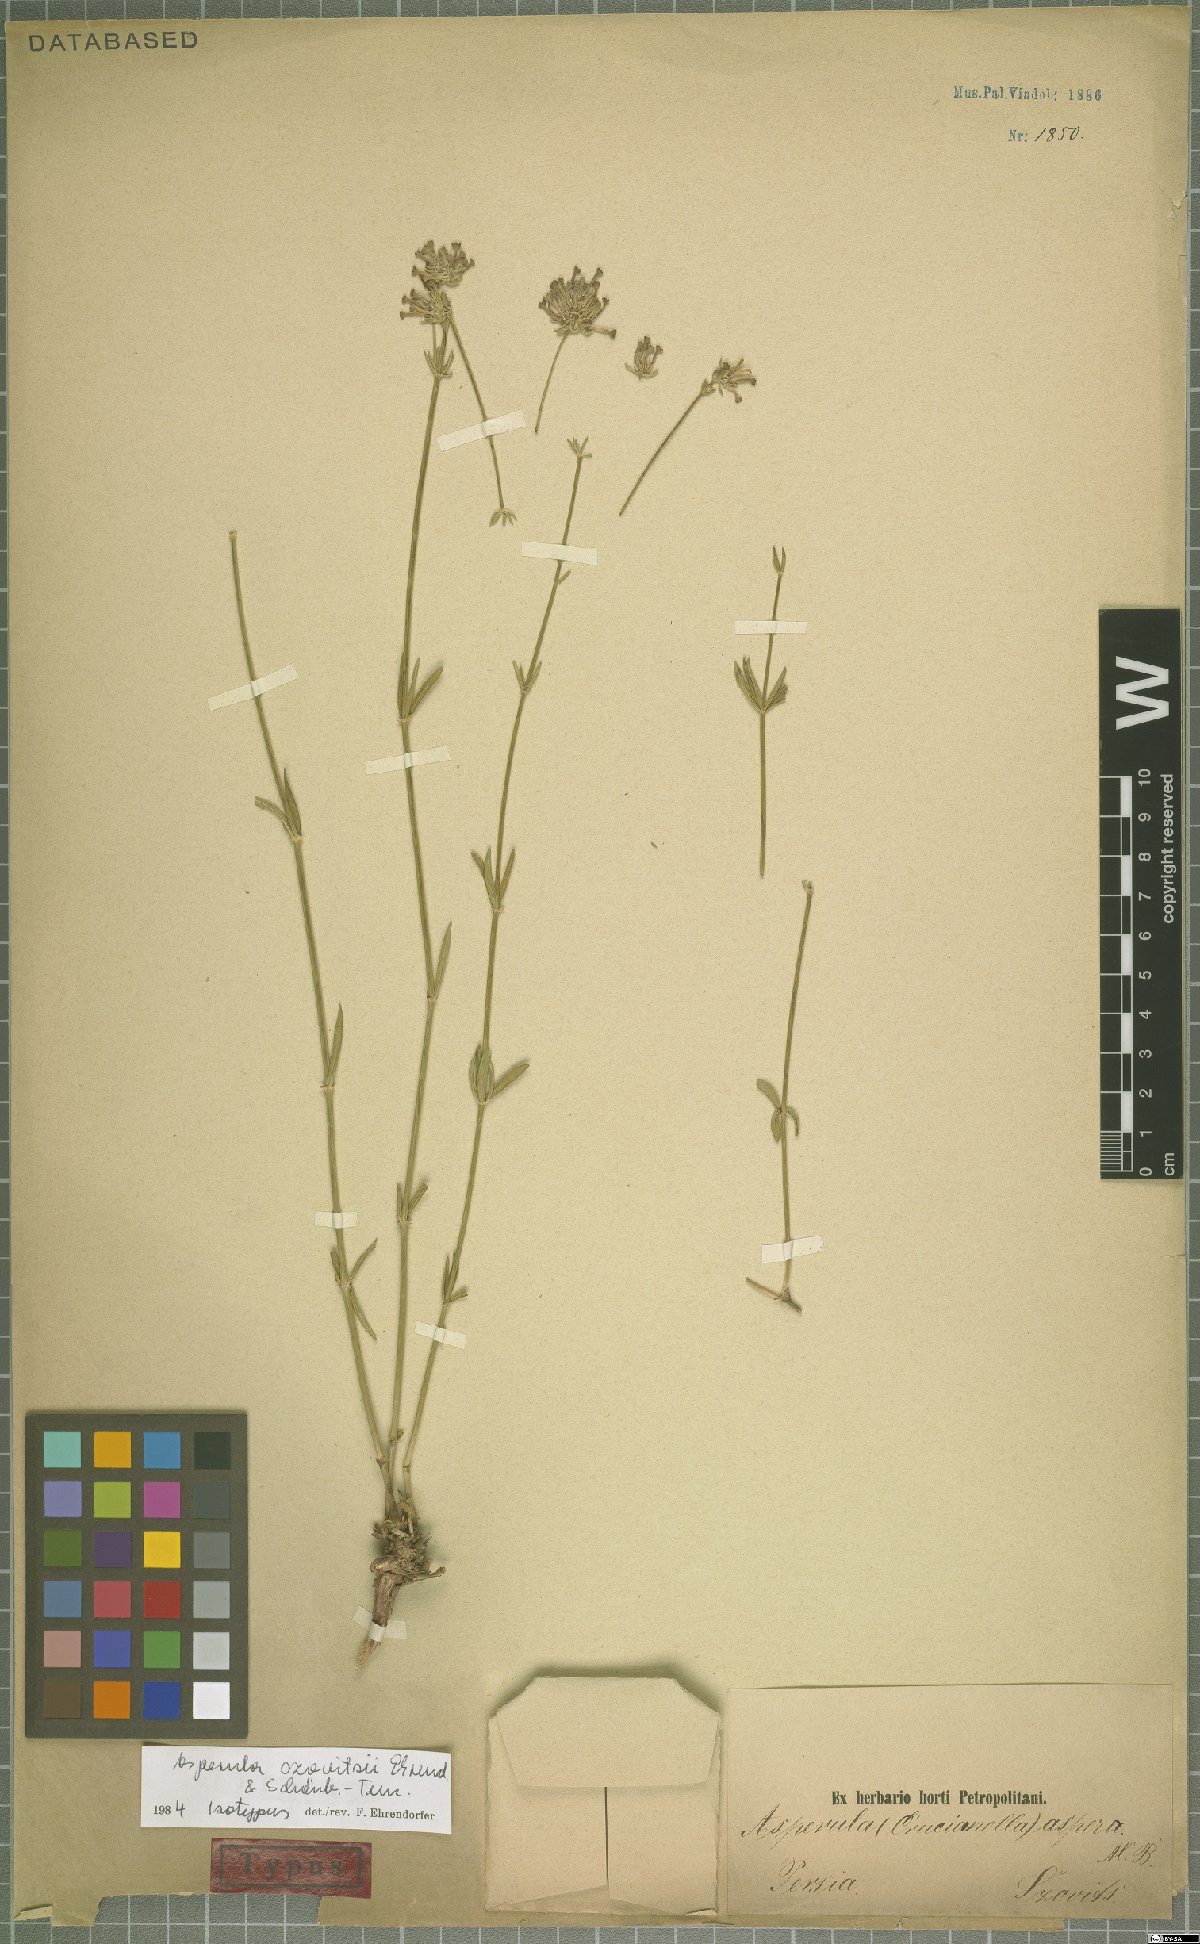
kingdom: Plantae
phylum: Tracheophyta
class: Magnoliopsida
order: Gentianales
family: Rubiaceae
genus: Asperula
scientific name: Asperula szovitsii
